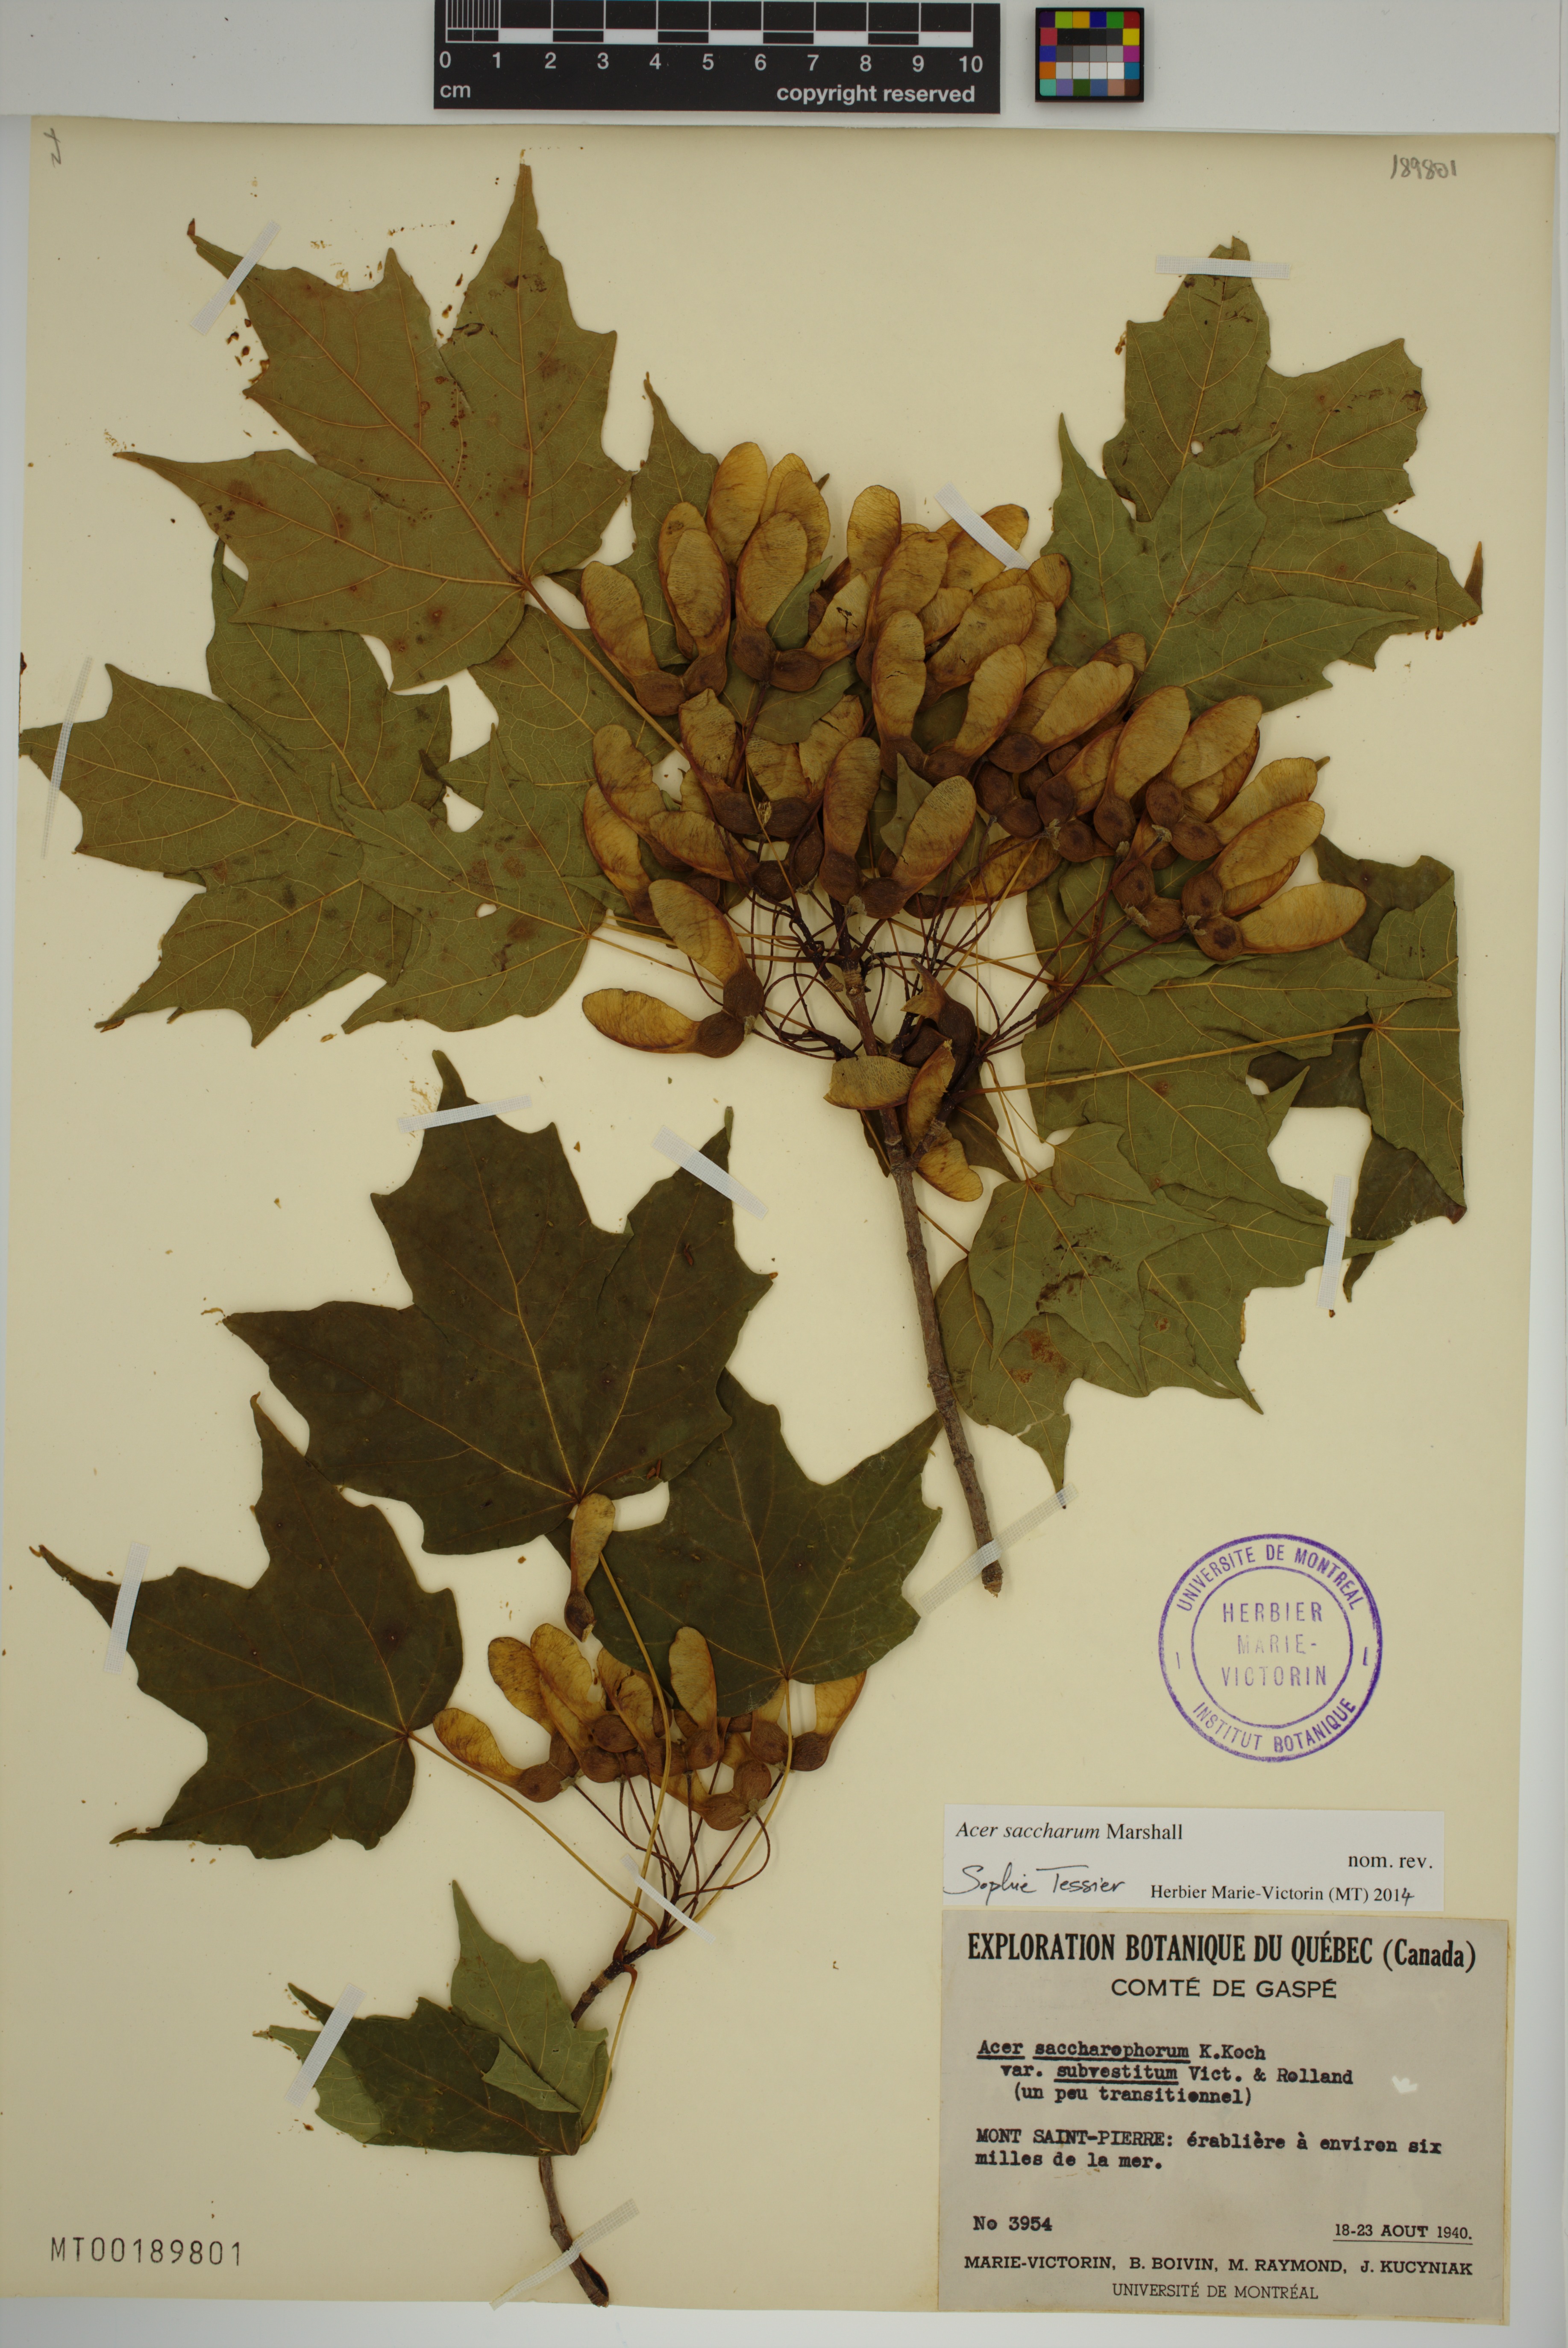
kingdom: Plantae
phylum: Tracheophyta
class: Magnoliopsida
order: Sapindales
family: Sapindaceae
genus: Acer
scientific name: Acer saccharum
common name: Sugar maple
